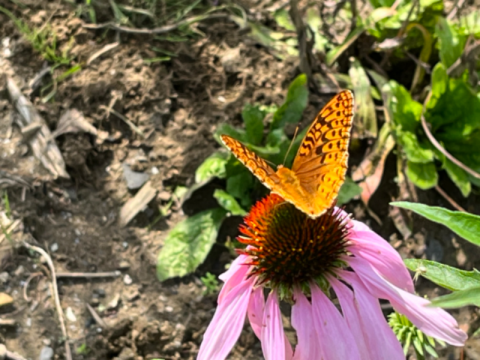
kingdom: Animalia
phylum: Arthropoda
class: Insecta
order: Lepidoptera
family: Nymphalidae
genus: Speyeria
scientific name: Speyeria cybele
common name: Great Spangled Fritillary
